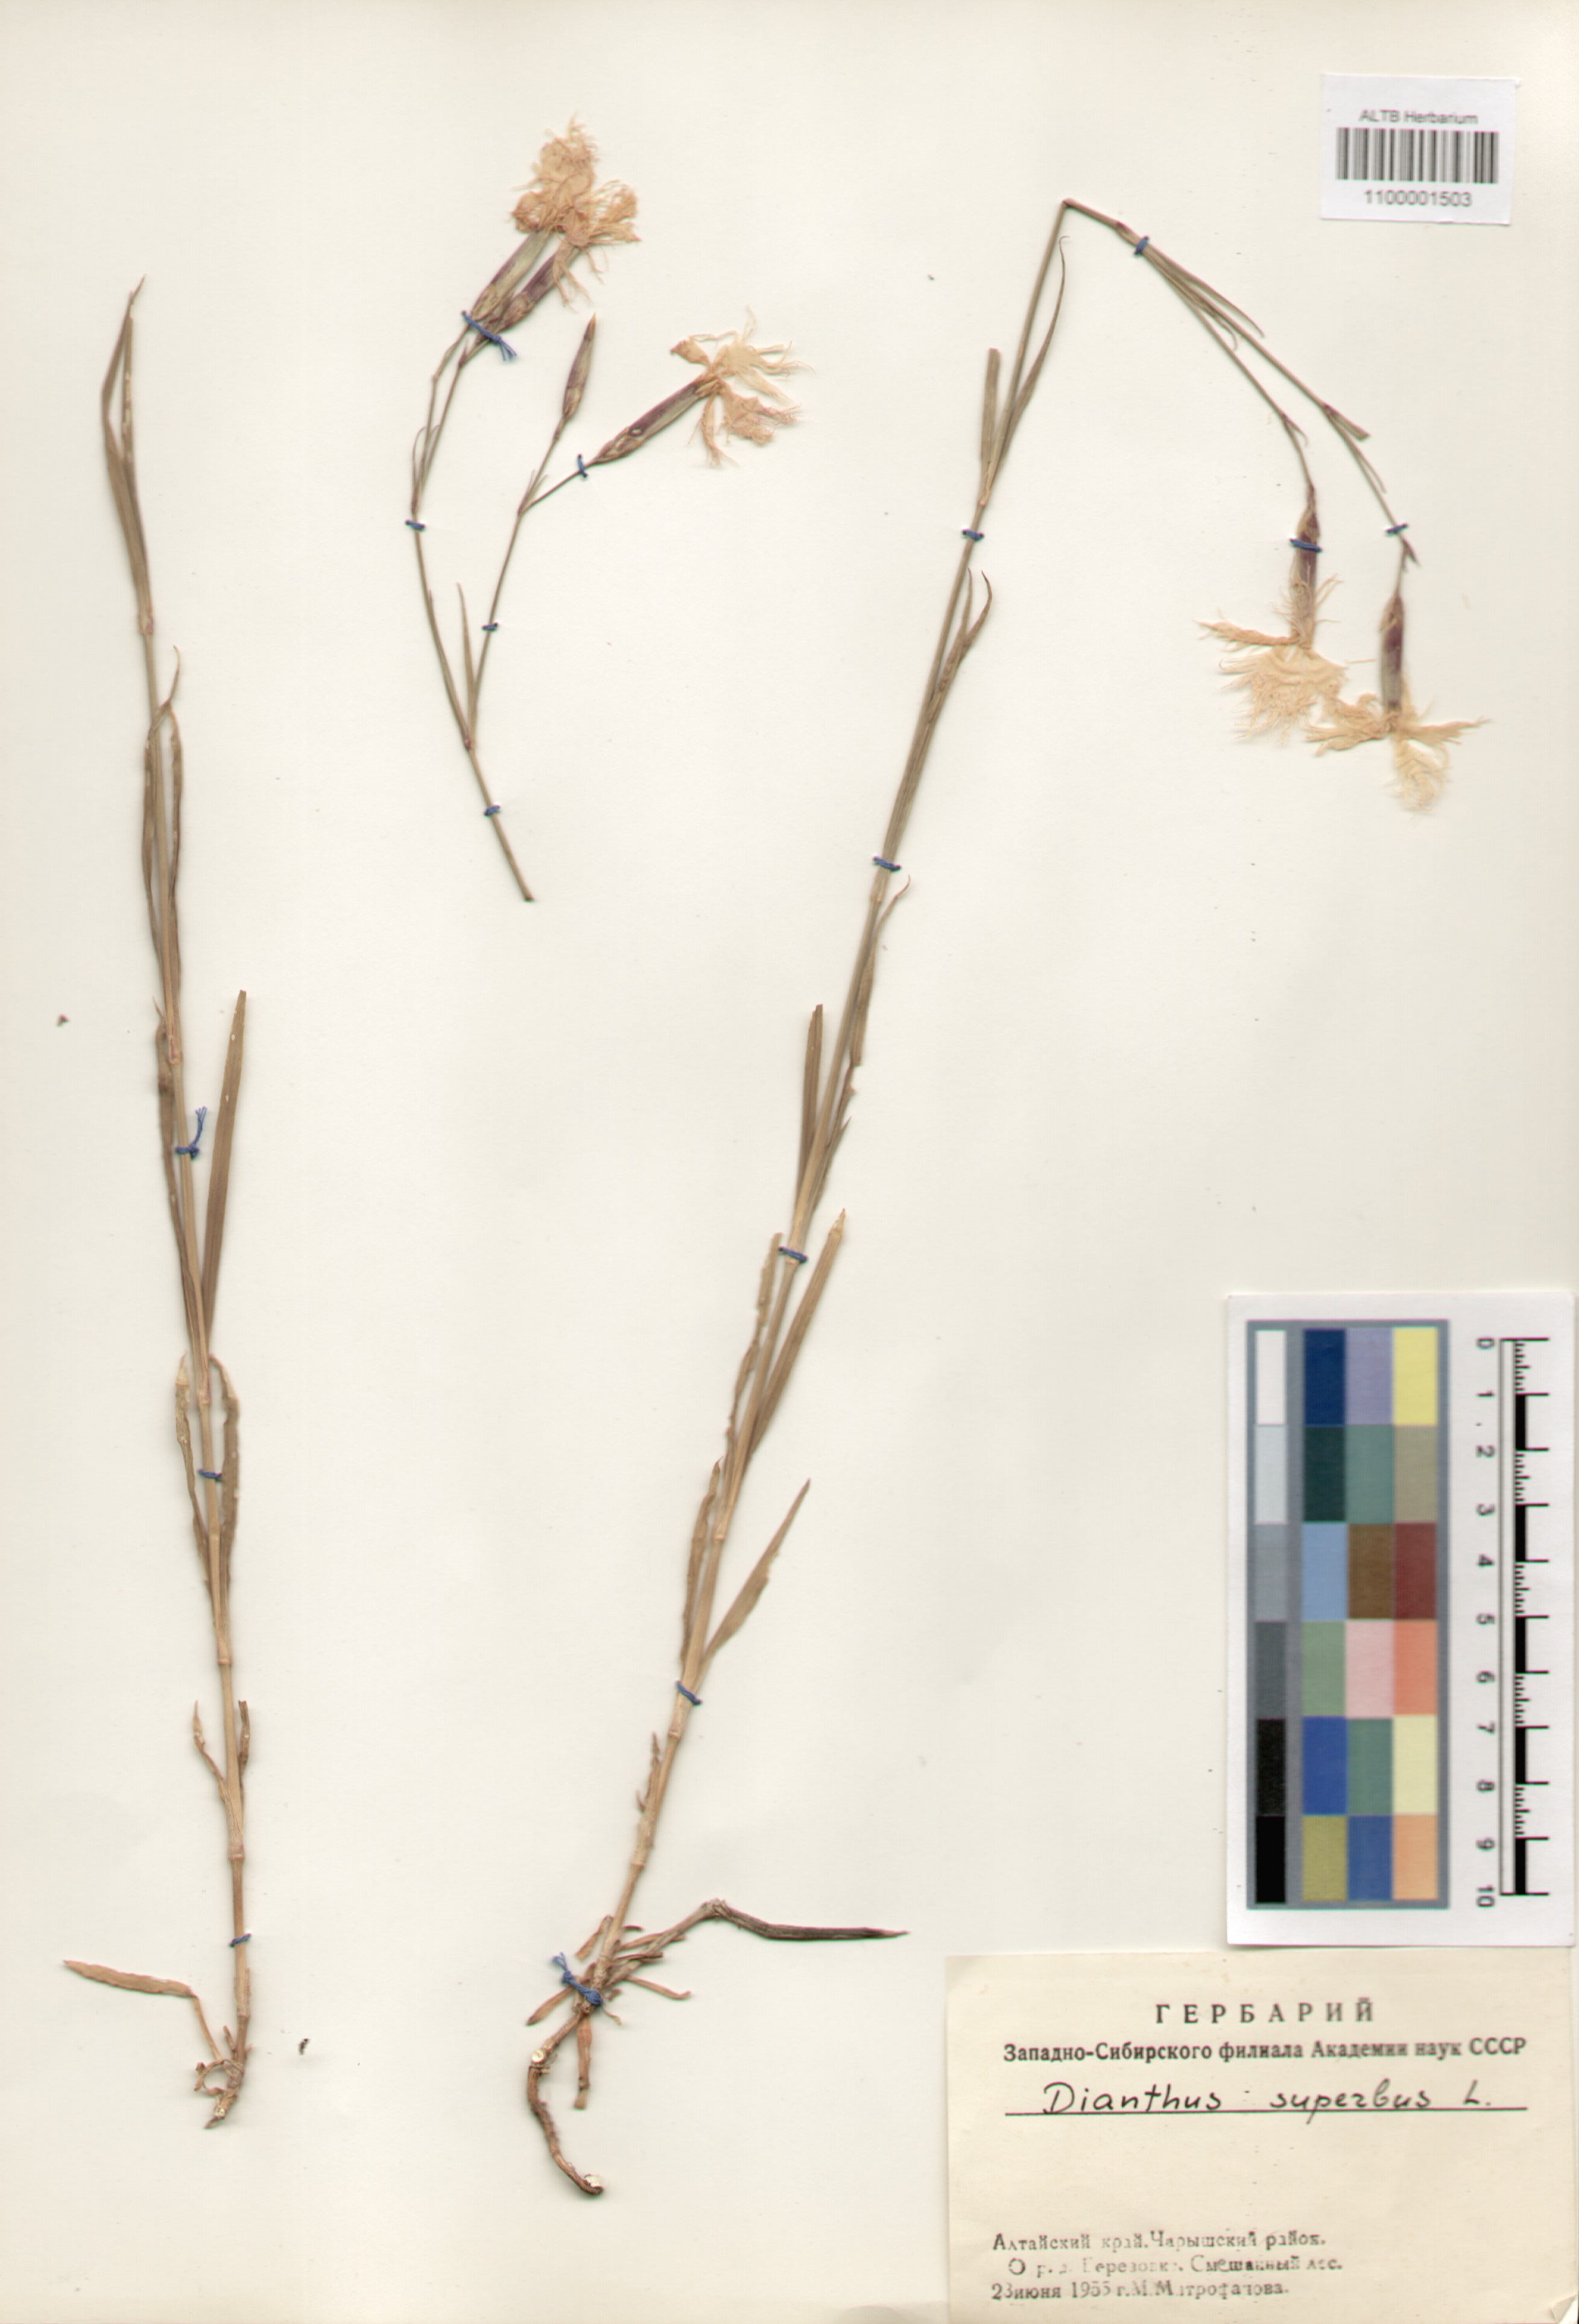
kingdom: Plantae
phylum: Tracheophyta
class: Magnoliopsida
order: Caryophyllales
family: Caryophyllaceae
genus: Dianthus
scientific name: Dianthus superbus
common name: Fringed pink
